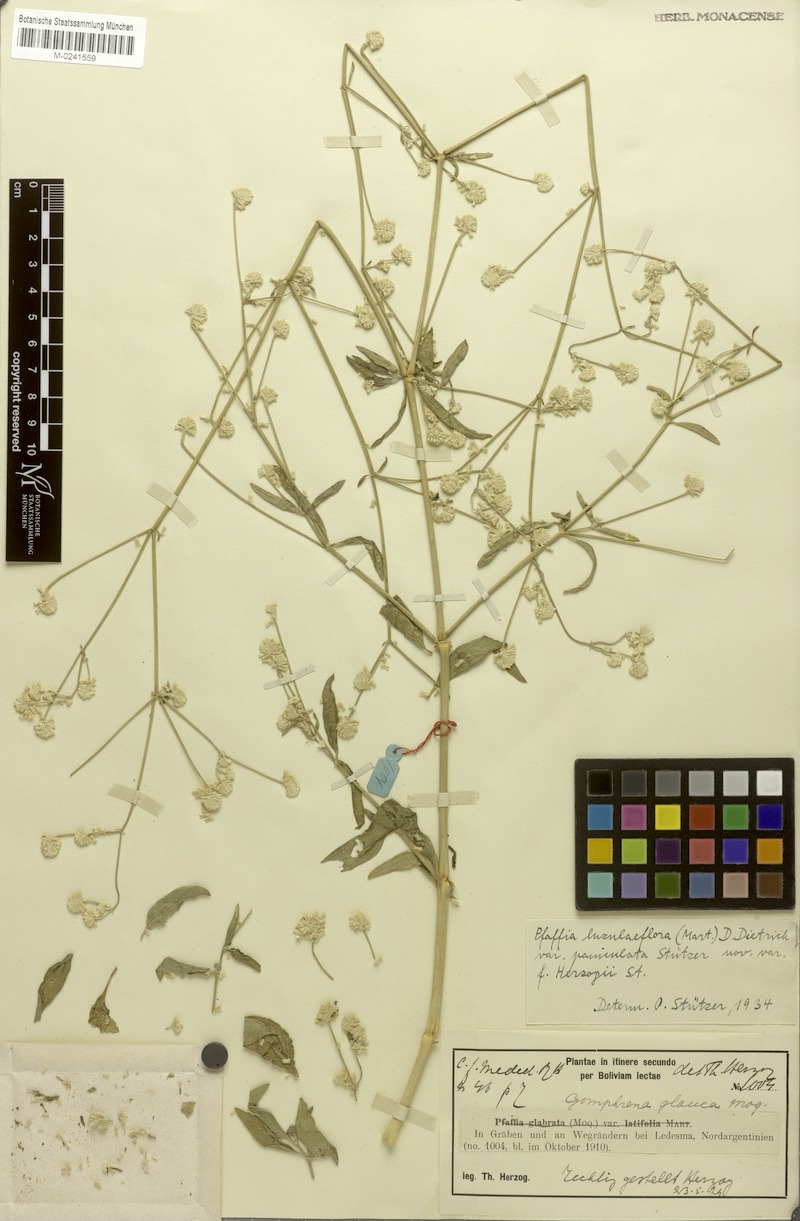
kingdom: Plantae
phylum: Tracheophyta
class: Magnoliopsida
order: Caryophyllales
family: Amaranthaceae
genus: Pfaffia
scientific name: Pfaffia glomerata
